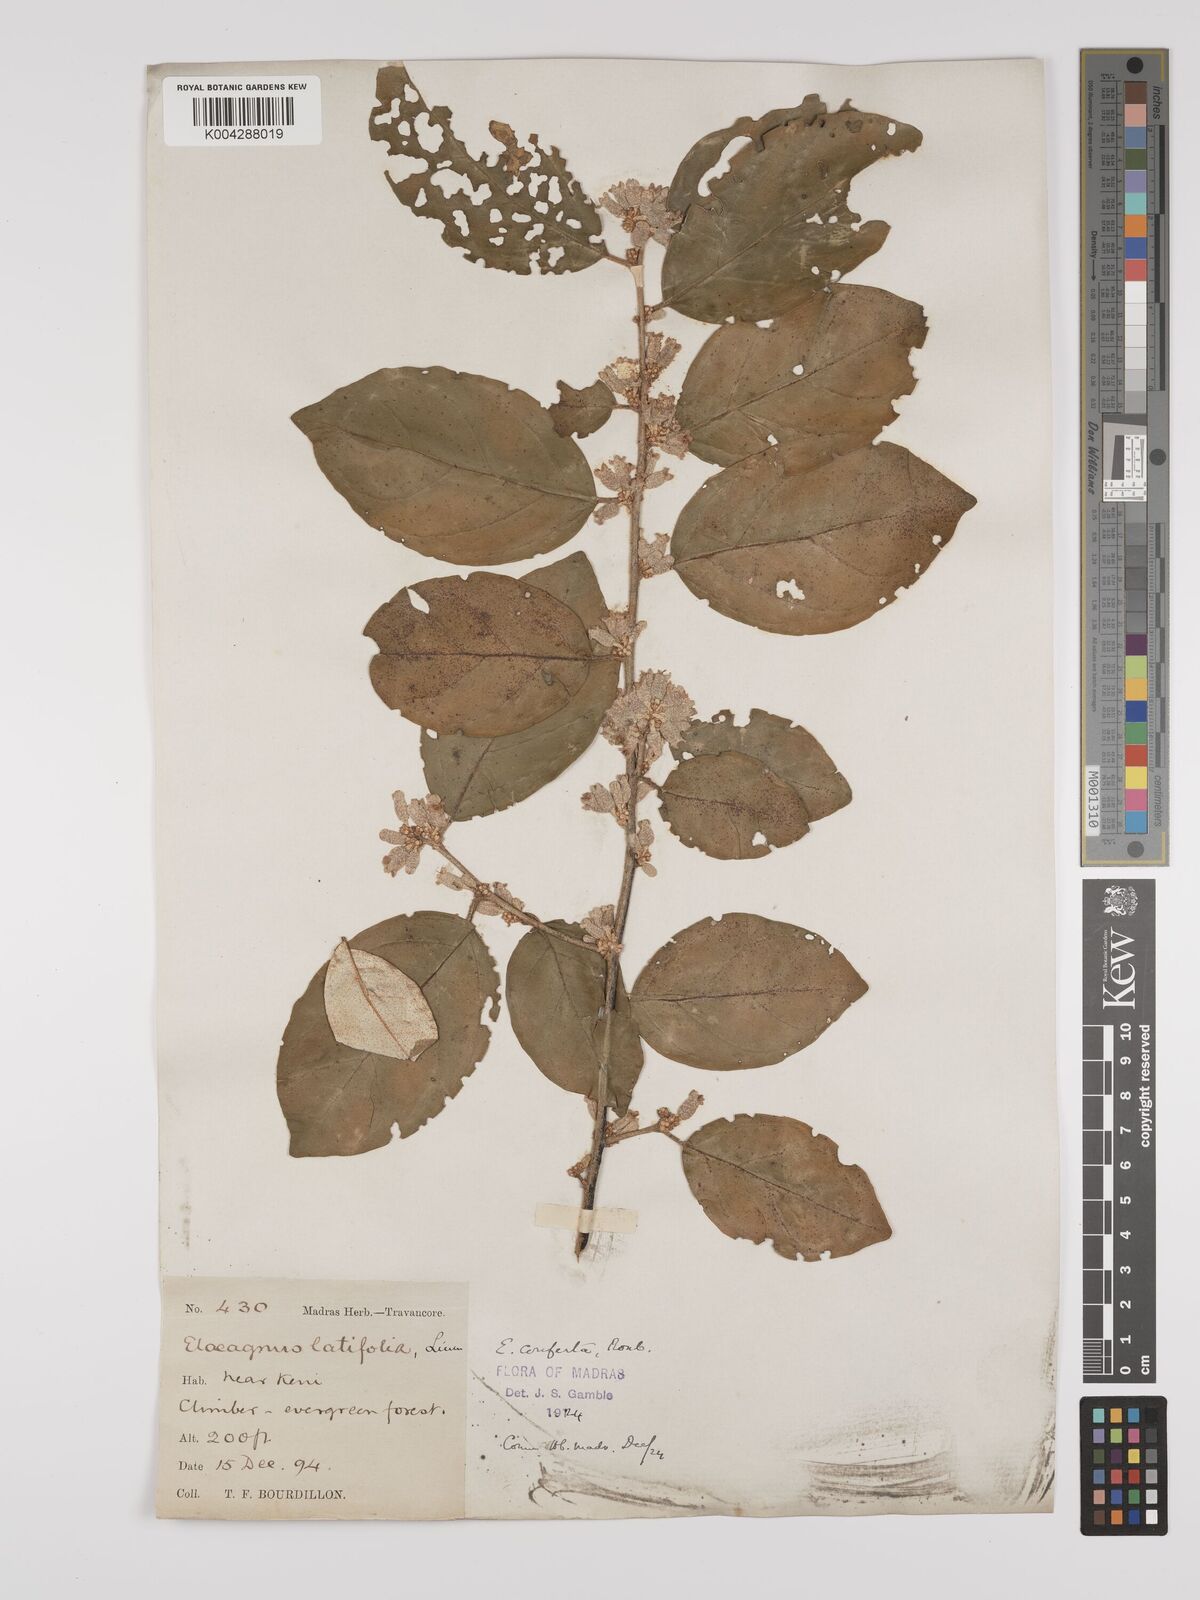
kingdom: Plantae
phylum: Tracheophyta
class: Magnoliopsida
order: Rosales
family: Elaeagnaceae
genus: Elaeagnus
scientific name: Elaeagnus latifolia
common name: Oleaster
